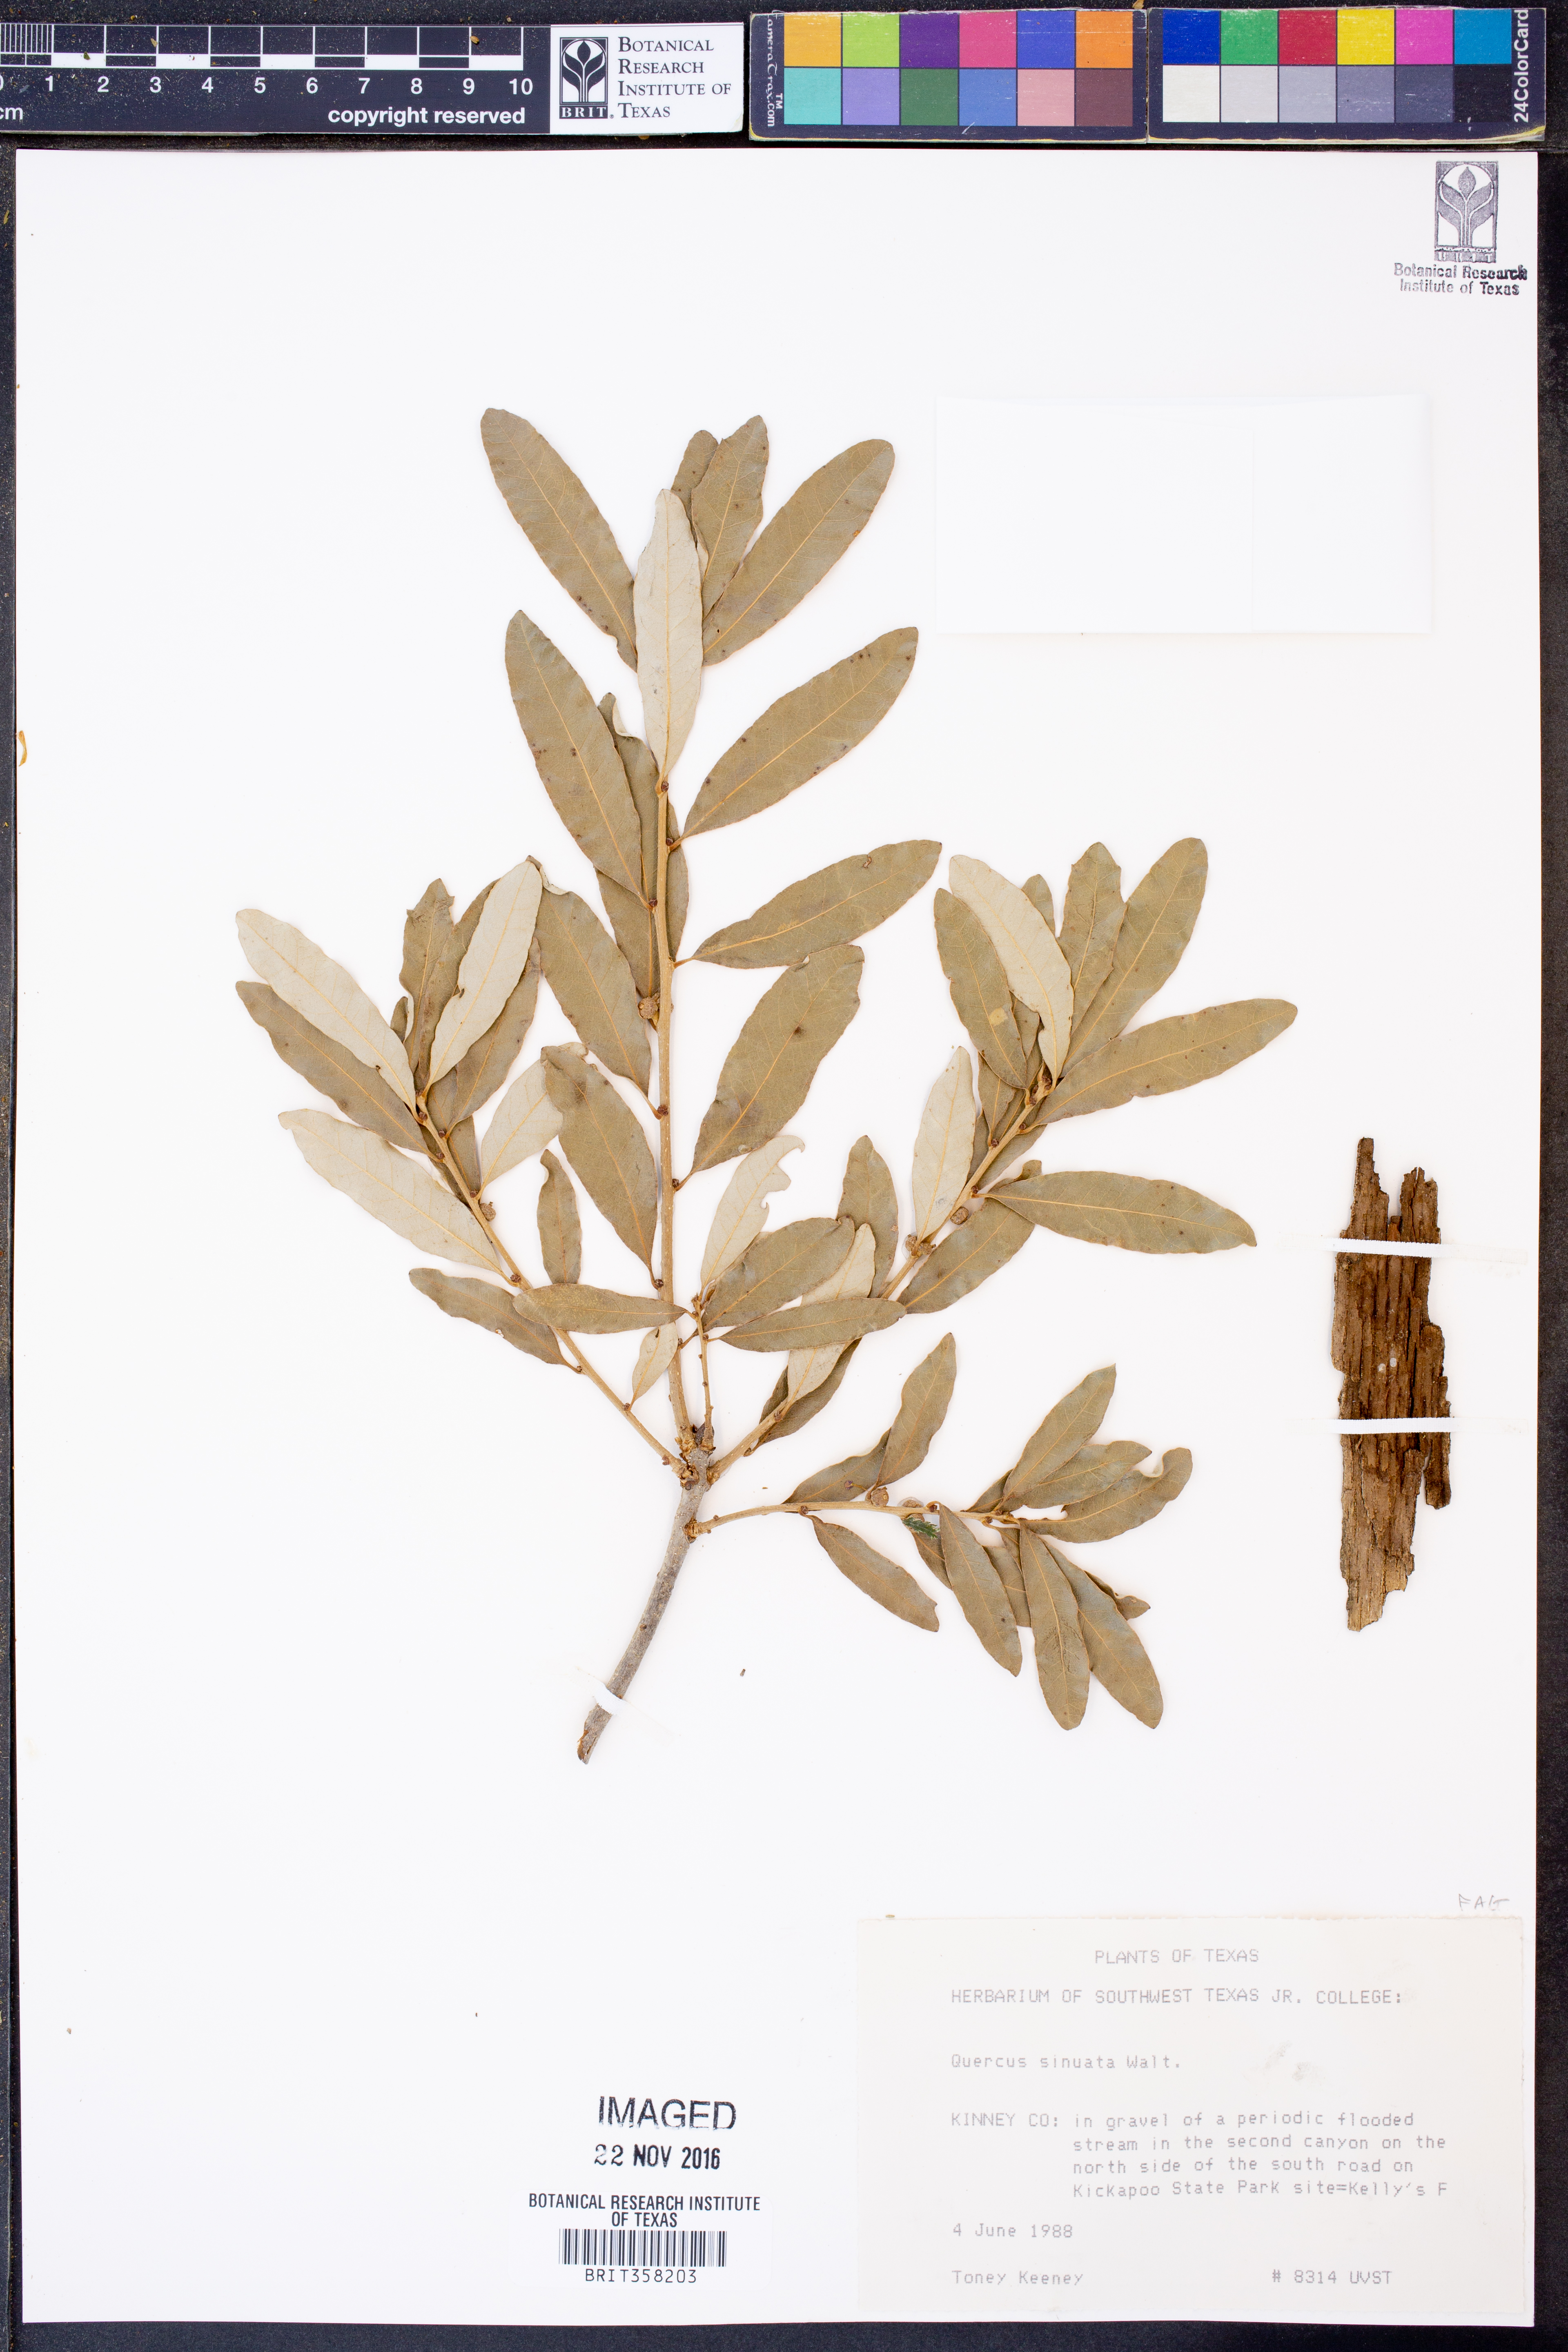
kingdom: Plantae
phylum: Tracheophyta
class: Magnoliopsida
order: Fagales
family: Fagaceae
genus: Quercus
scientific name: Quercus sinuata
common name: Durand oak
